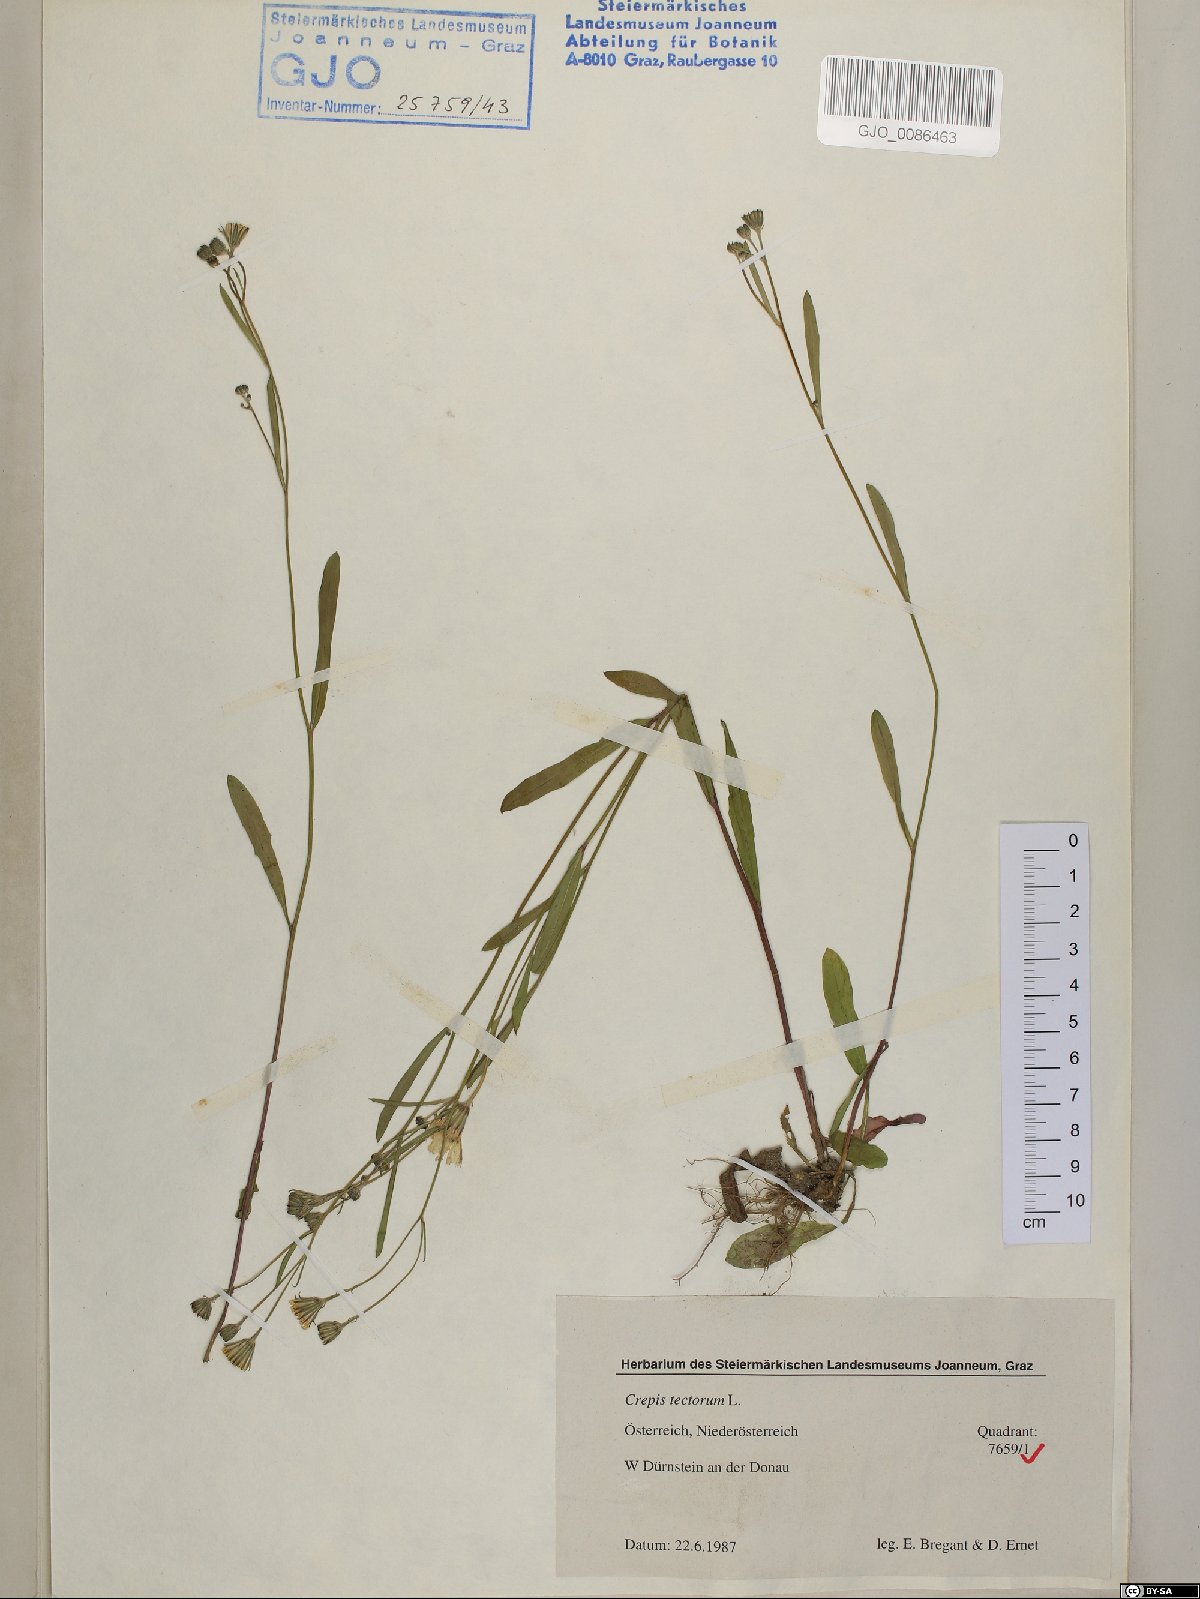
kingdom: Plantae
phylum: Tracheophyta
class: Magnoliopsida
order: Asterales
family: Asteraceae
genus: Crepis
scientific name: Crepis tectorum
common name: Narrow-leaved hawk's-beard
